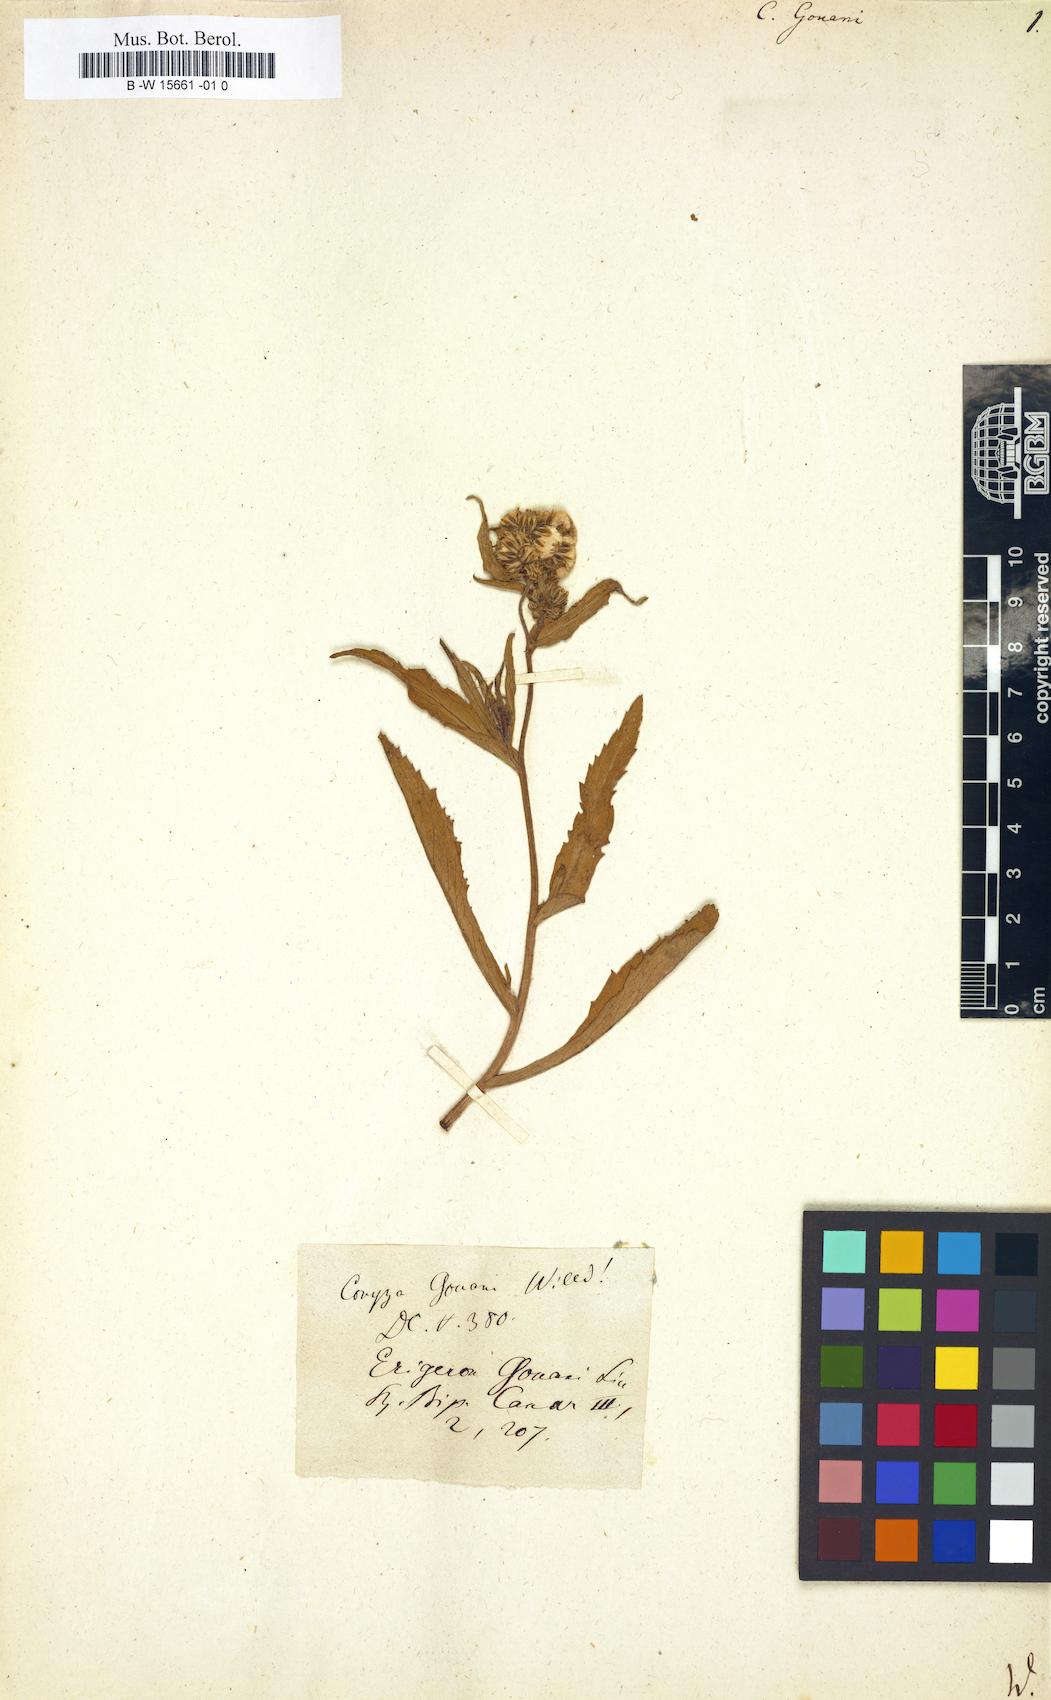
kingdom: Plantae
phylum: Tracheophyta
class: Magnoliopsida
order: Asterales
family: Asteraceae
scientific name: Asteraceae
